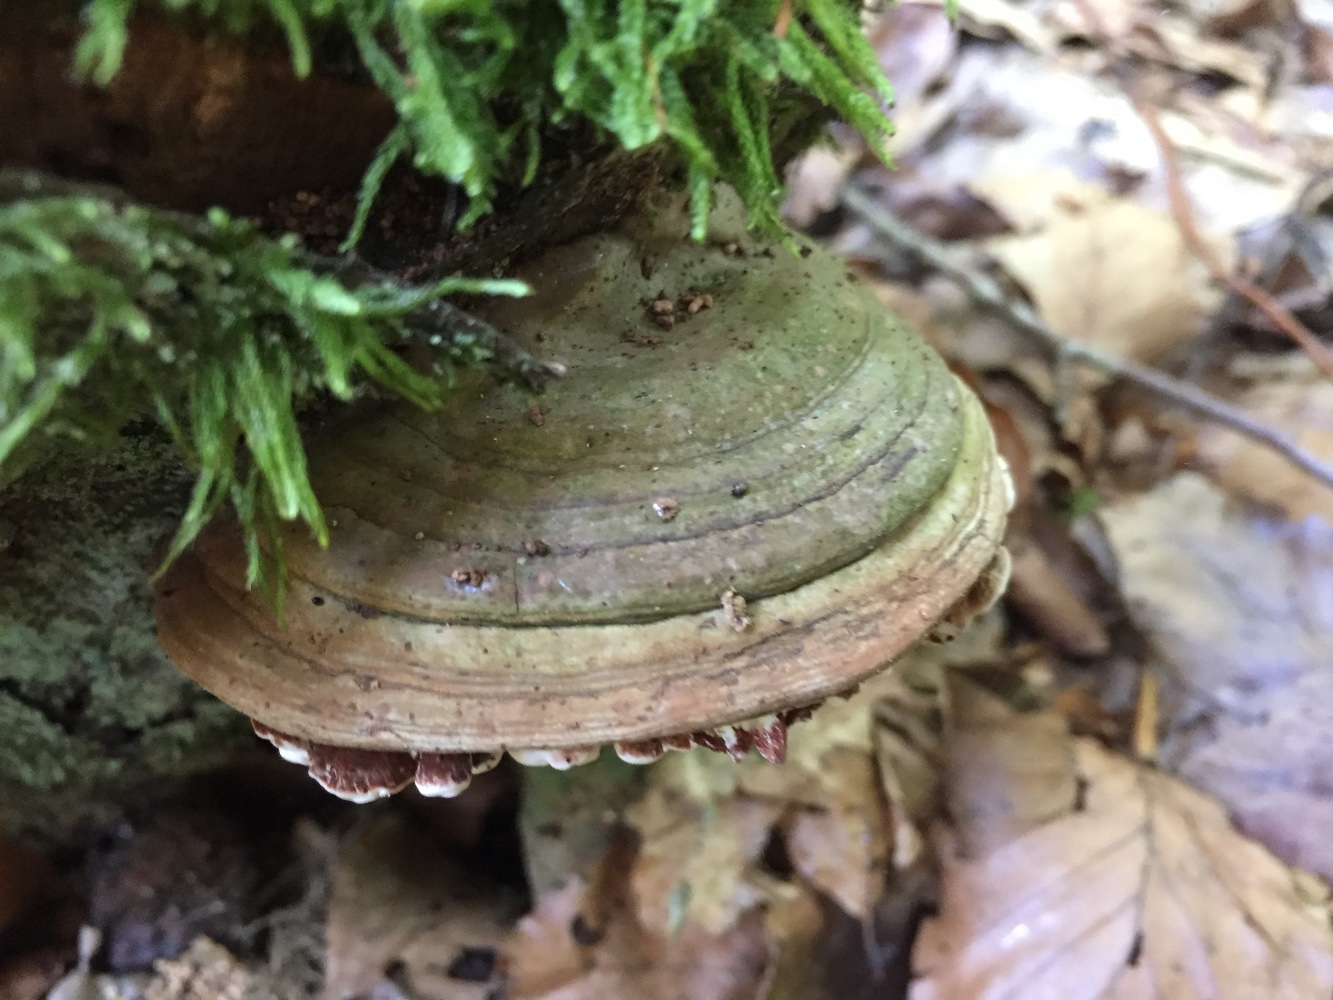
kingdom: Fungi
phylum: Basidiomycota
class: Agaricomycetes
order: Polyporales
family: Polyporaceae
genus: Ganoderma
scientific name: Ganoderma applanatum
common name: flad lakporesvamp
